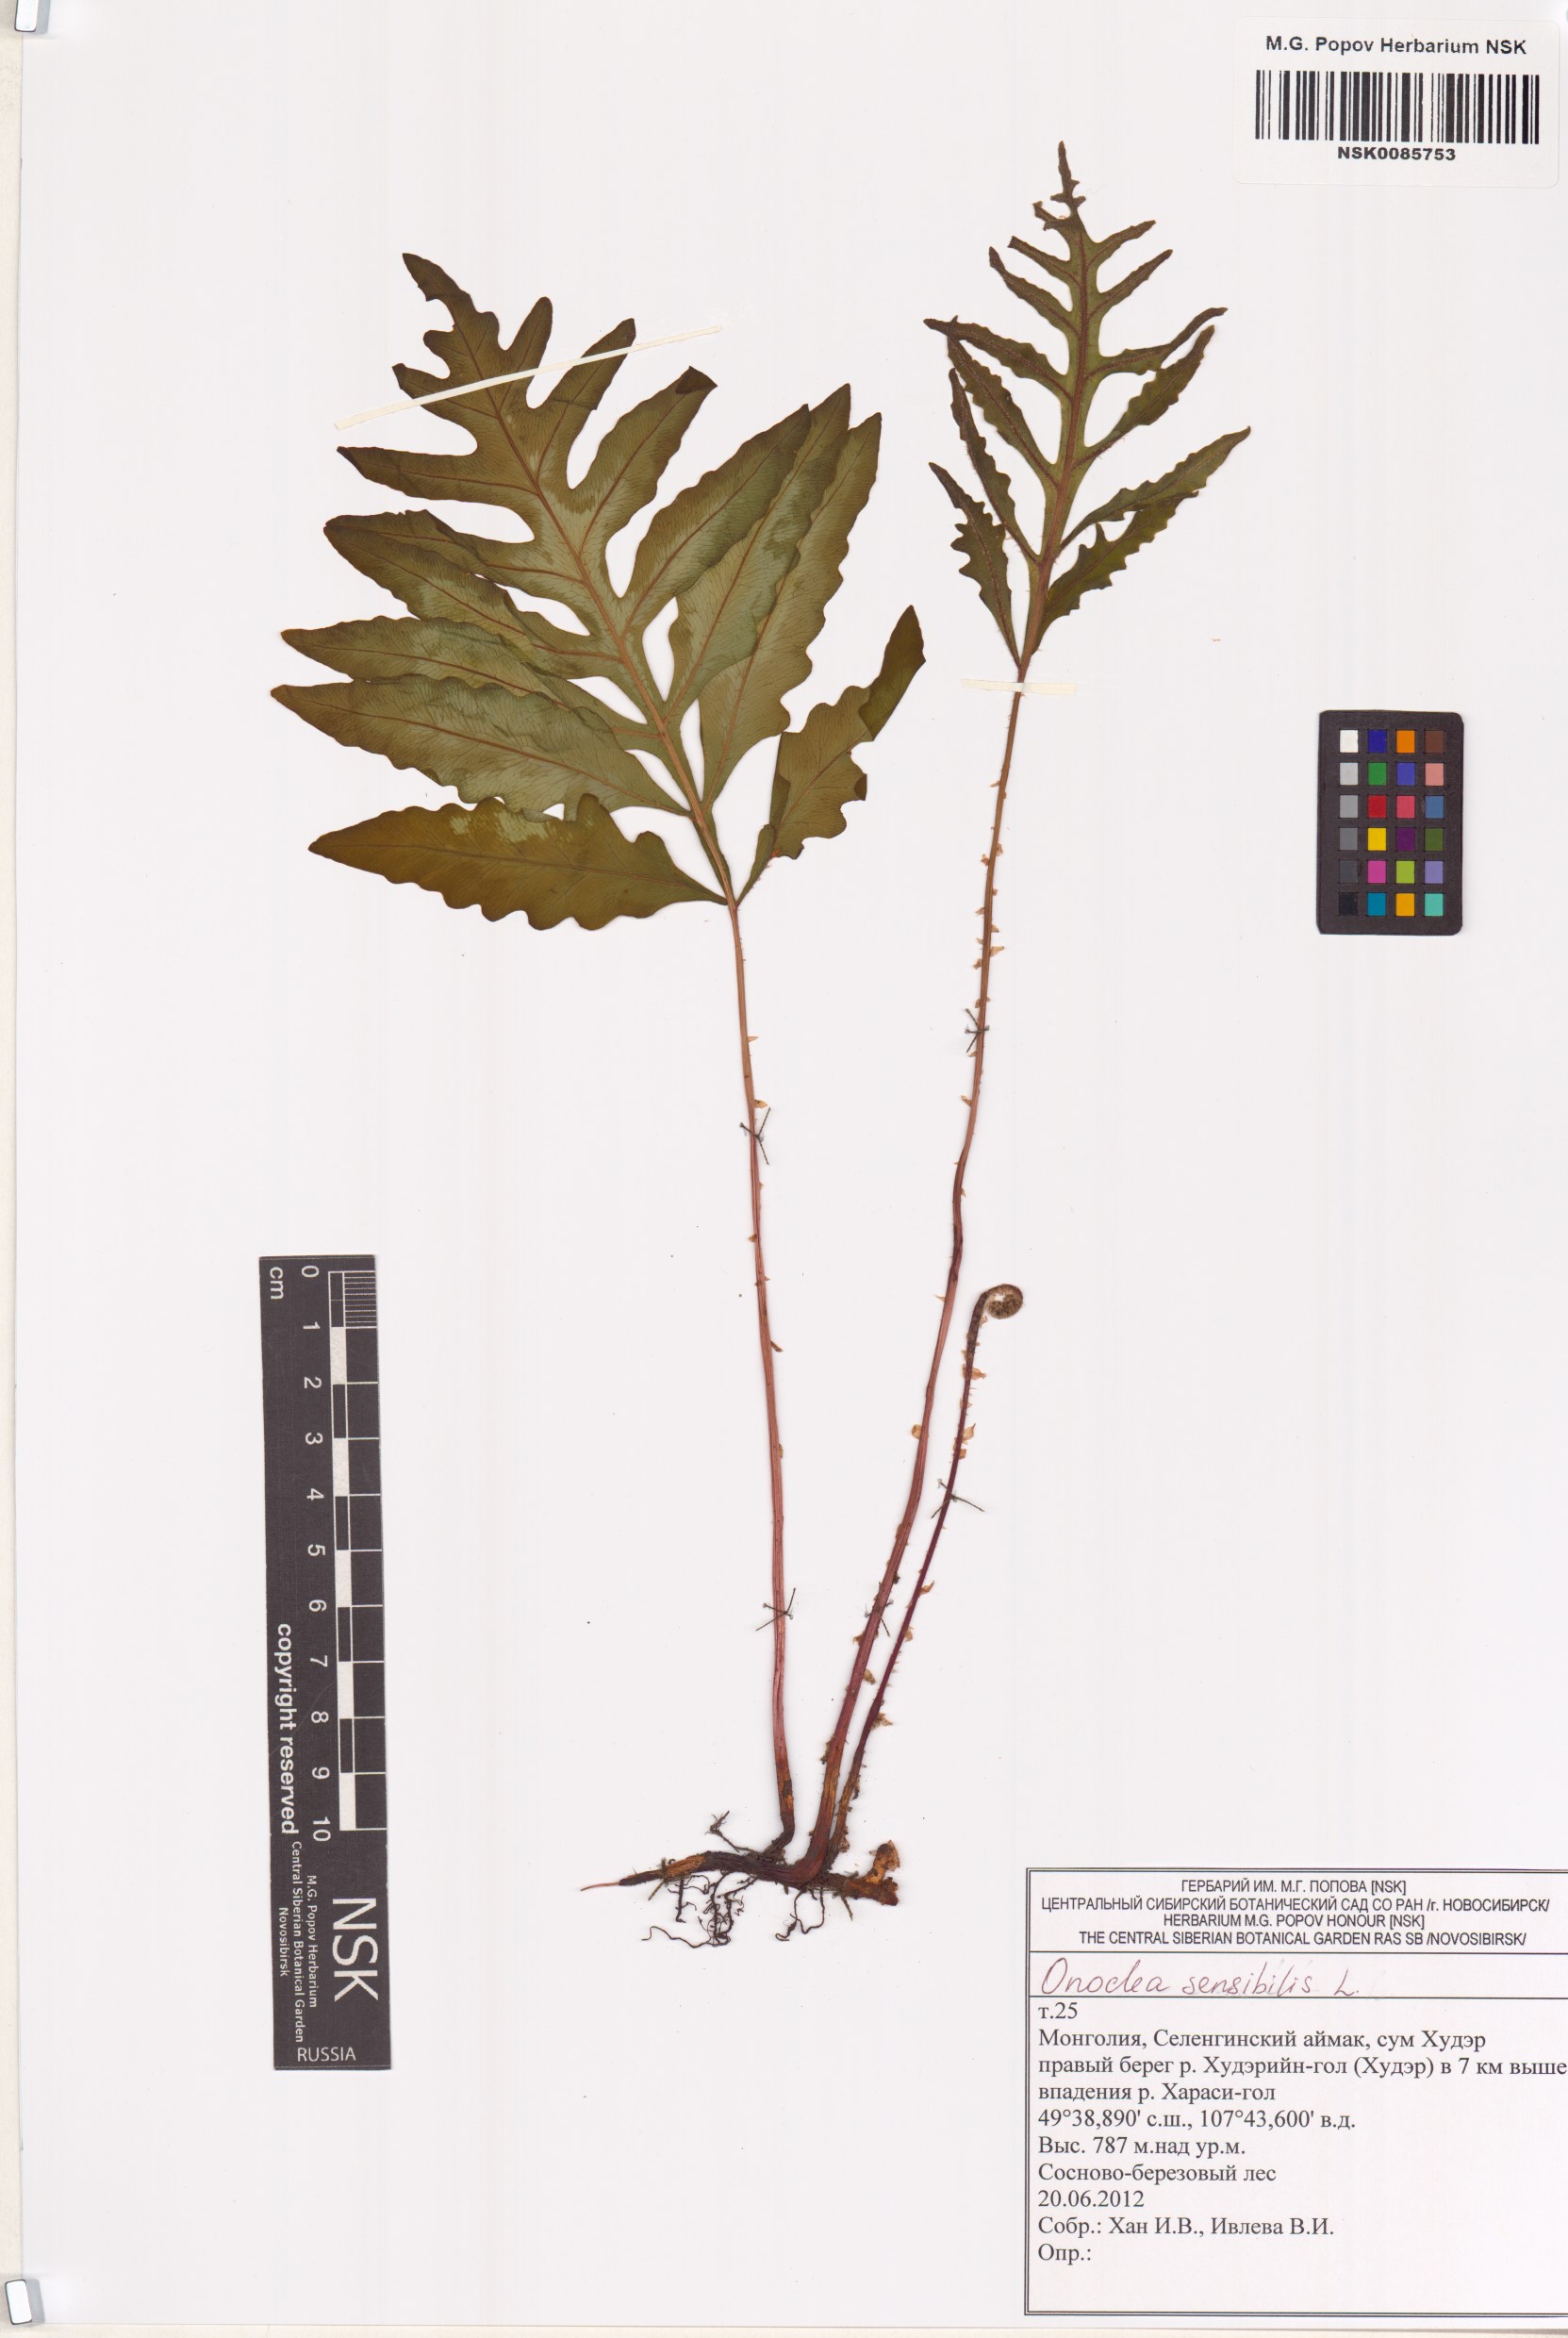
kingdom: Plantae
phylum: Tracheophyta
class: Polypodiopsida
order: Polypodiales
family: Onocleaceae
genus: Onoclea
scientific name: Onoclea sensibilis
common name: Sensitive fern
